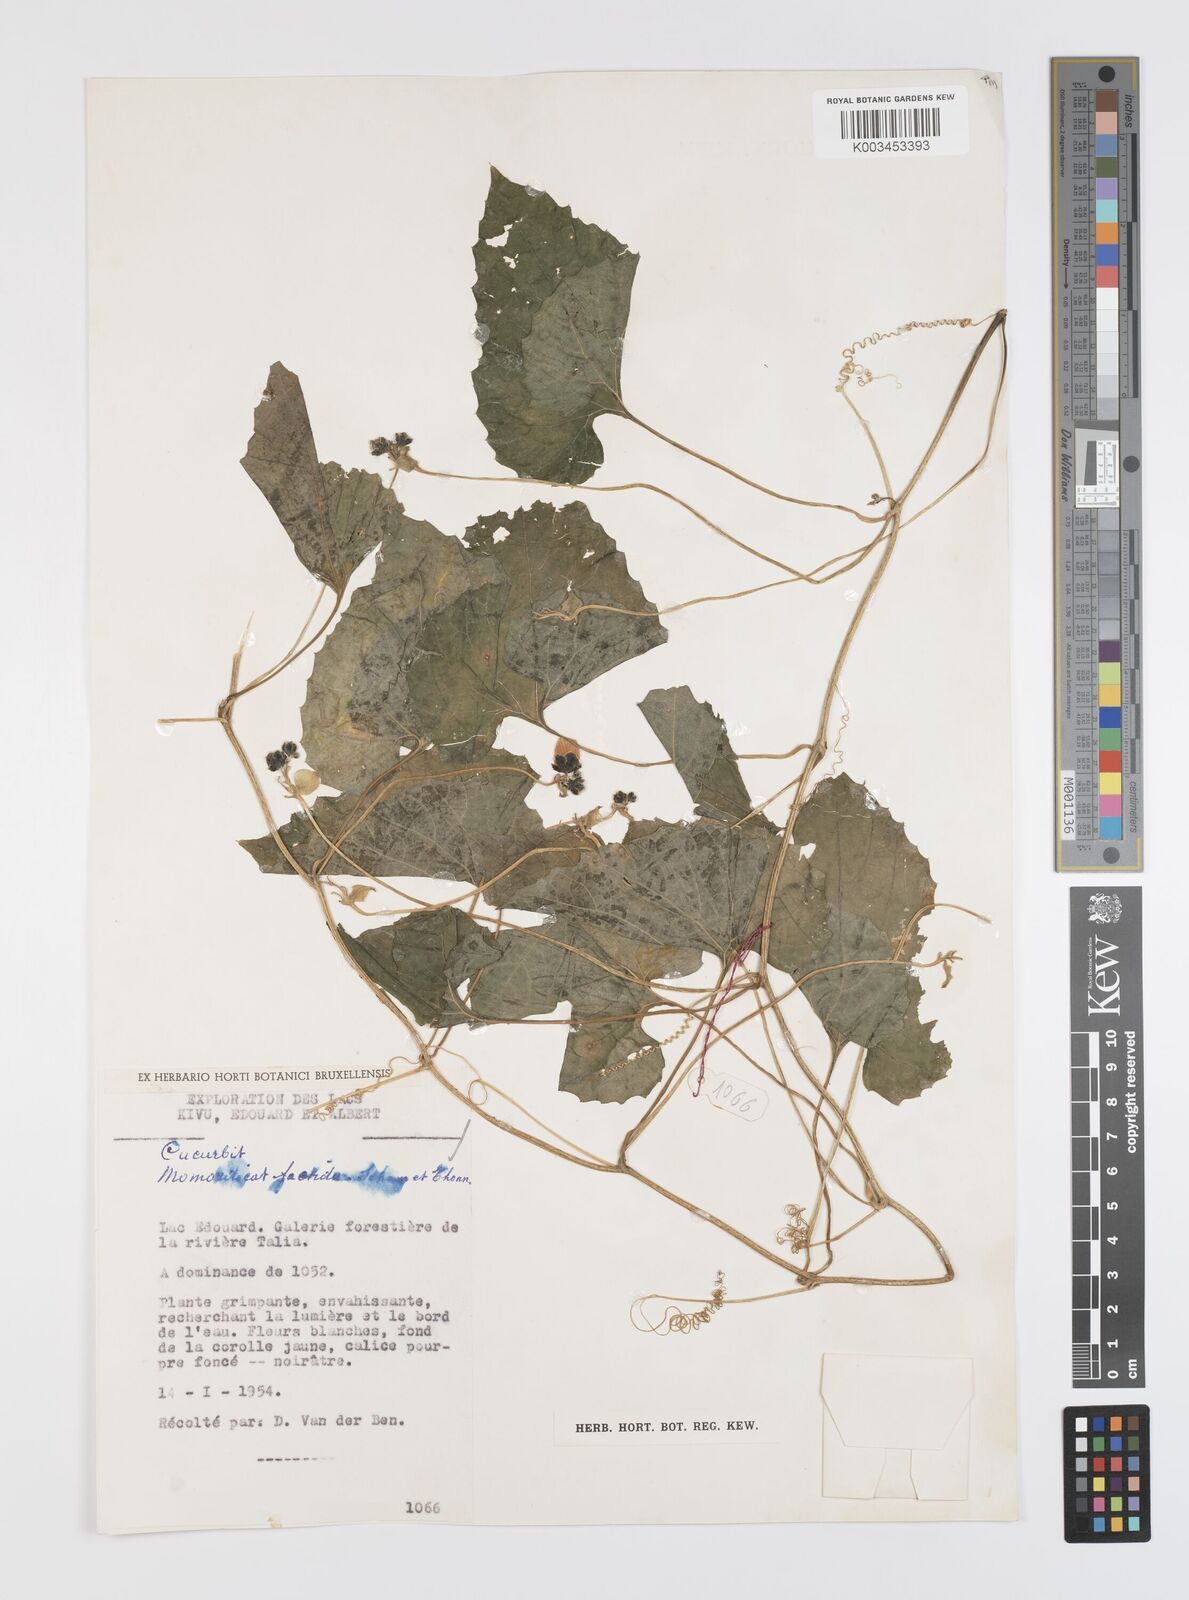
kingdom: Plantae
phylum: Tracheophyta
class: Magnoliopsida
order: Cucurbitales
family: Cucurbitaceae
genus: Momordica
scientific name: Momordica foetida
